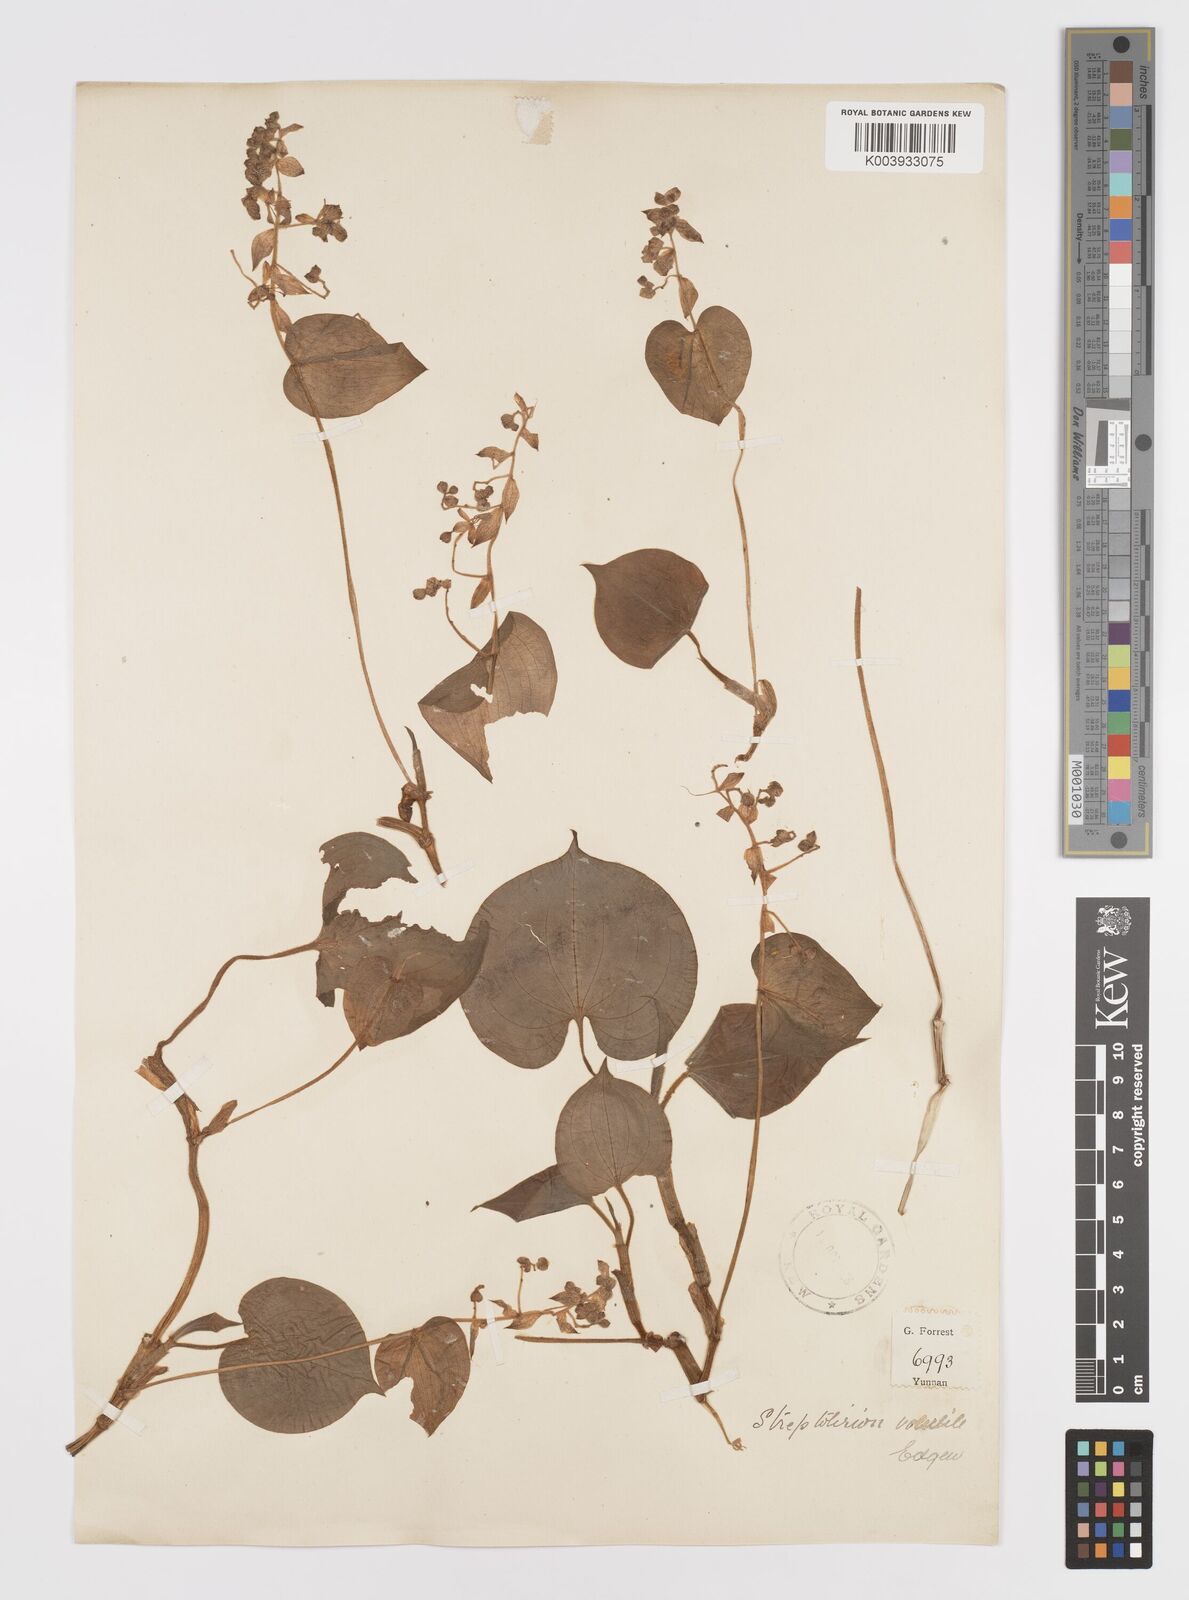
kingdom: Plantae
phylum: Tracheophyta
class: Liliopsida
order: Commelinales
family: Commelinaceae
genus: Streptolirion
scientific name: Streptolirion volubile
